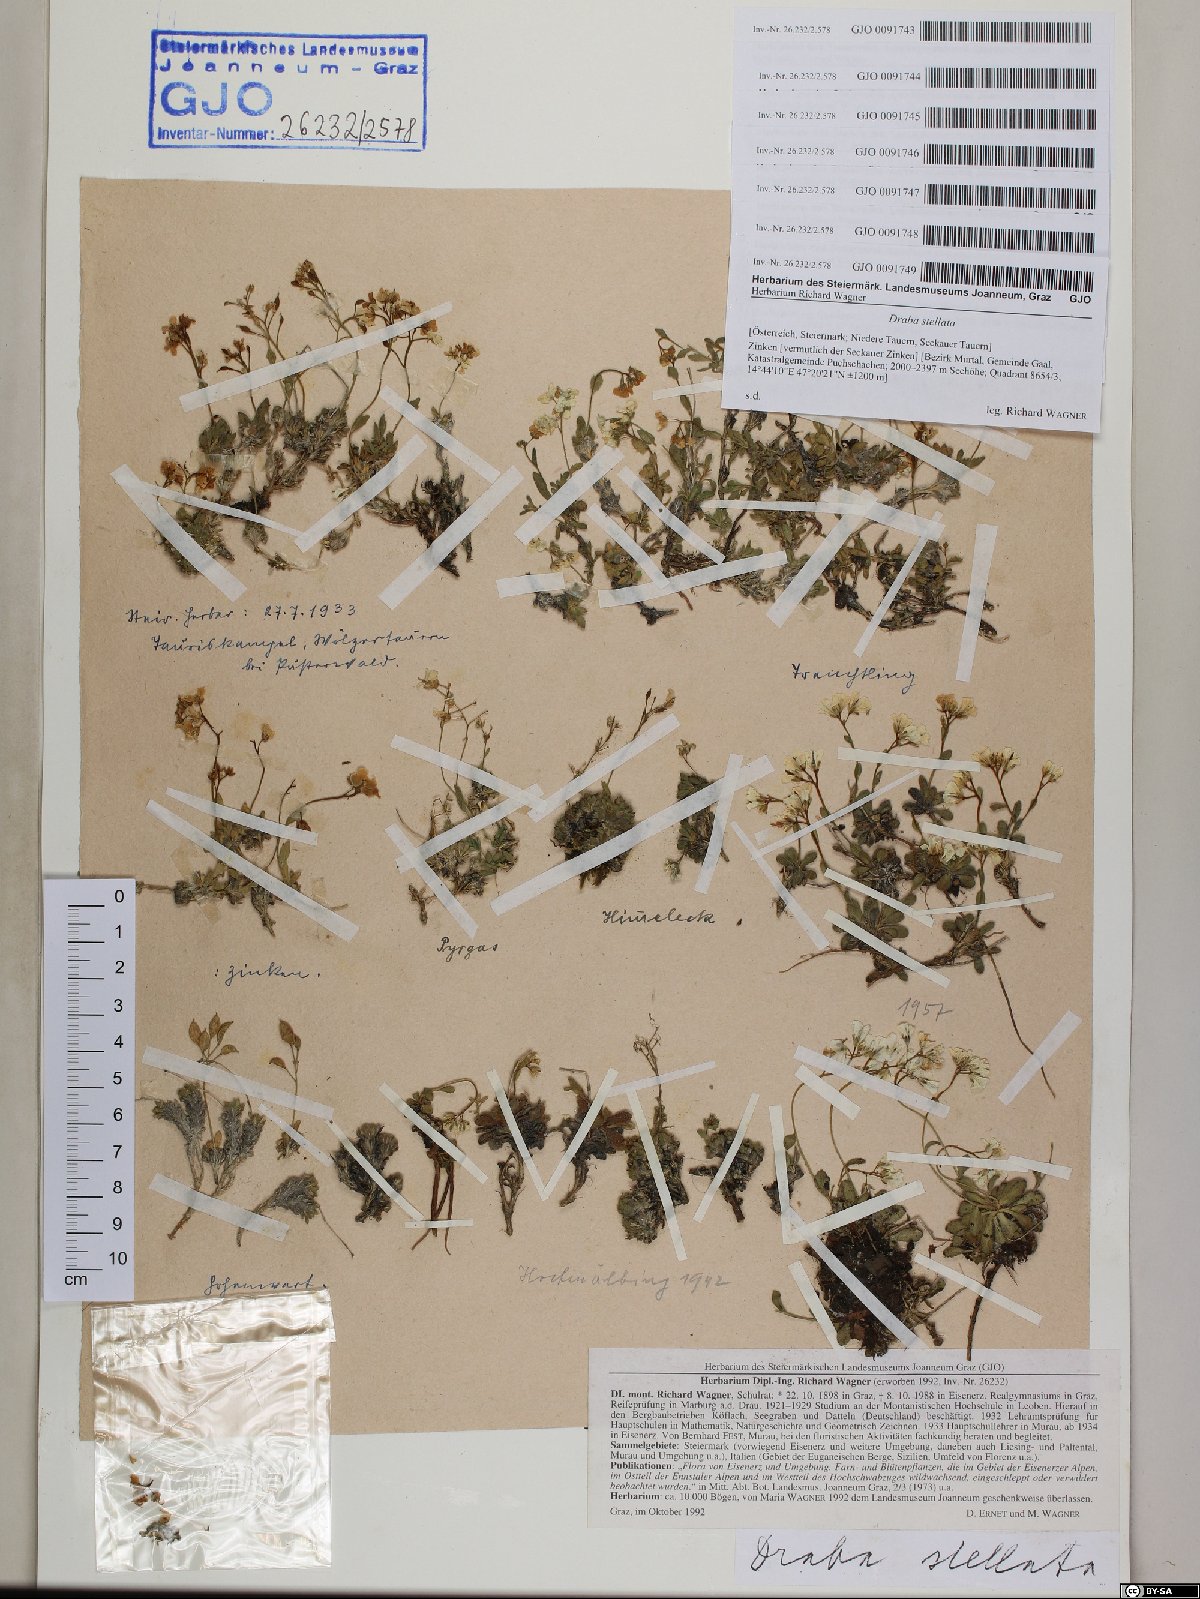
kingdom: Plantae
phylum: Tracheophyta
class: Magnoliopsida
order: Brassicales
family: Brassicaceae
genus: Draba
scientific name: Draba stellata
